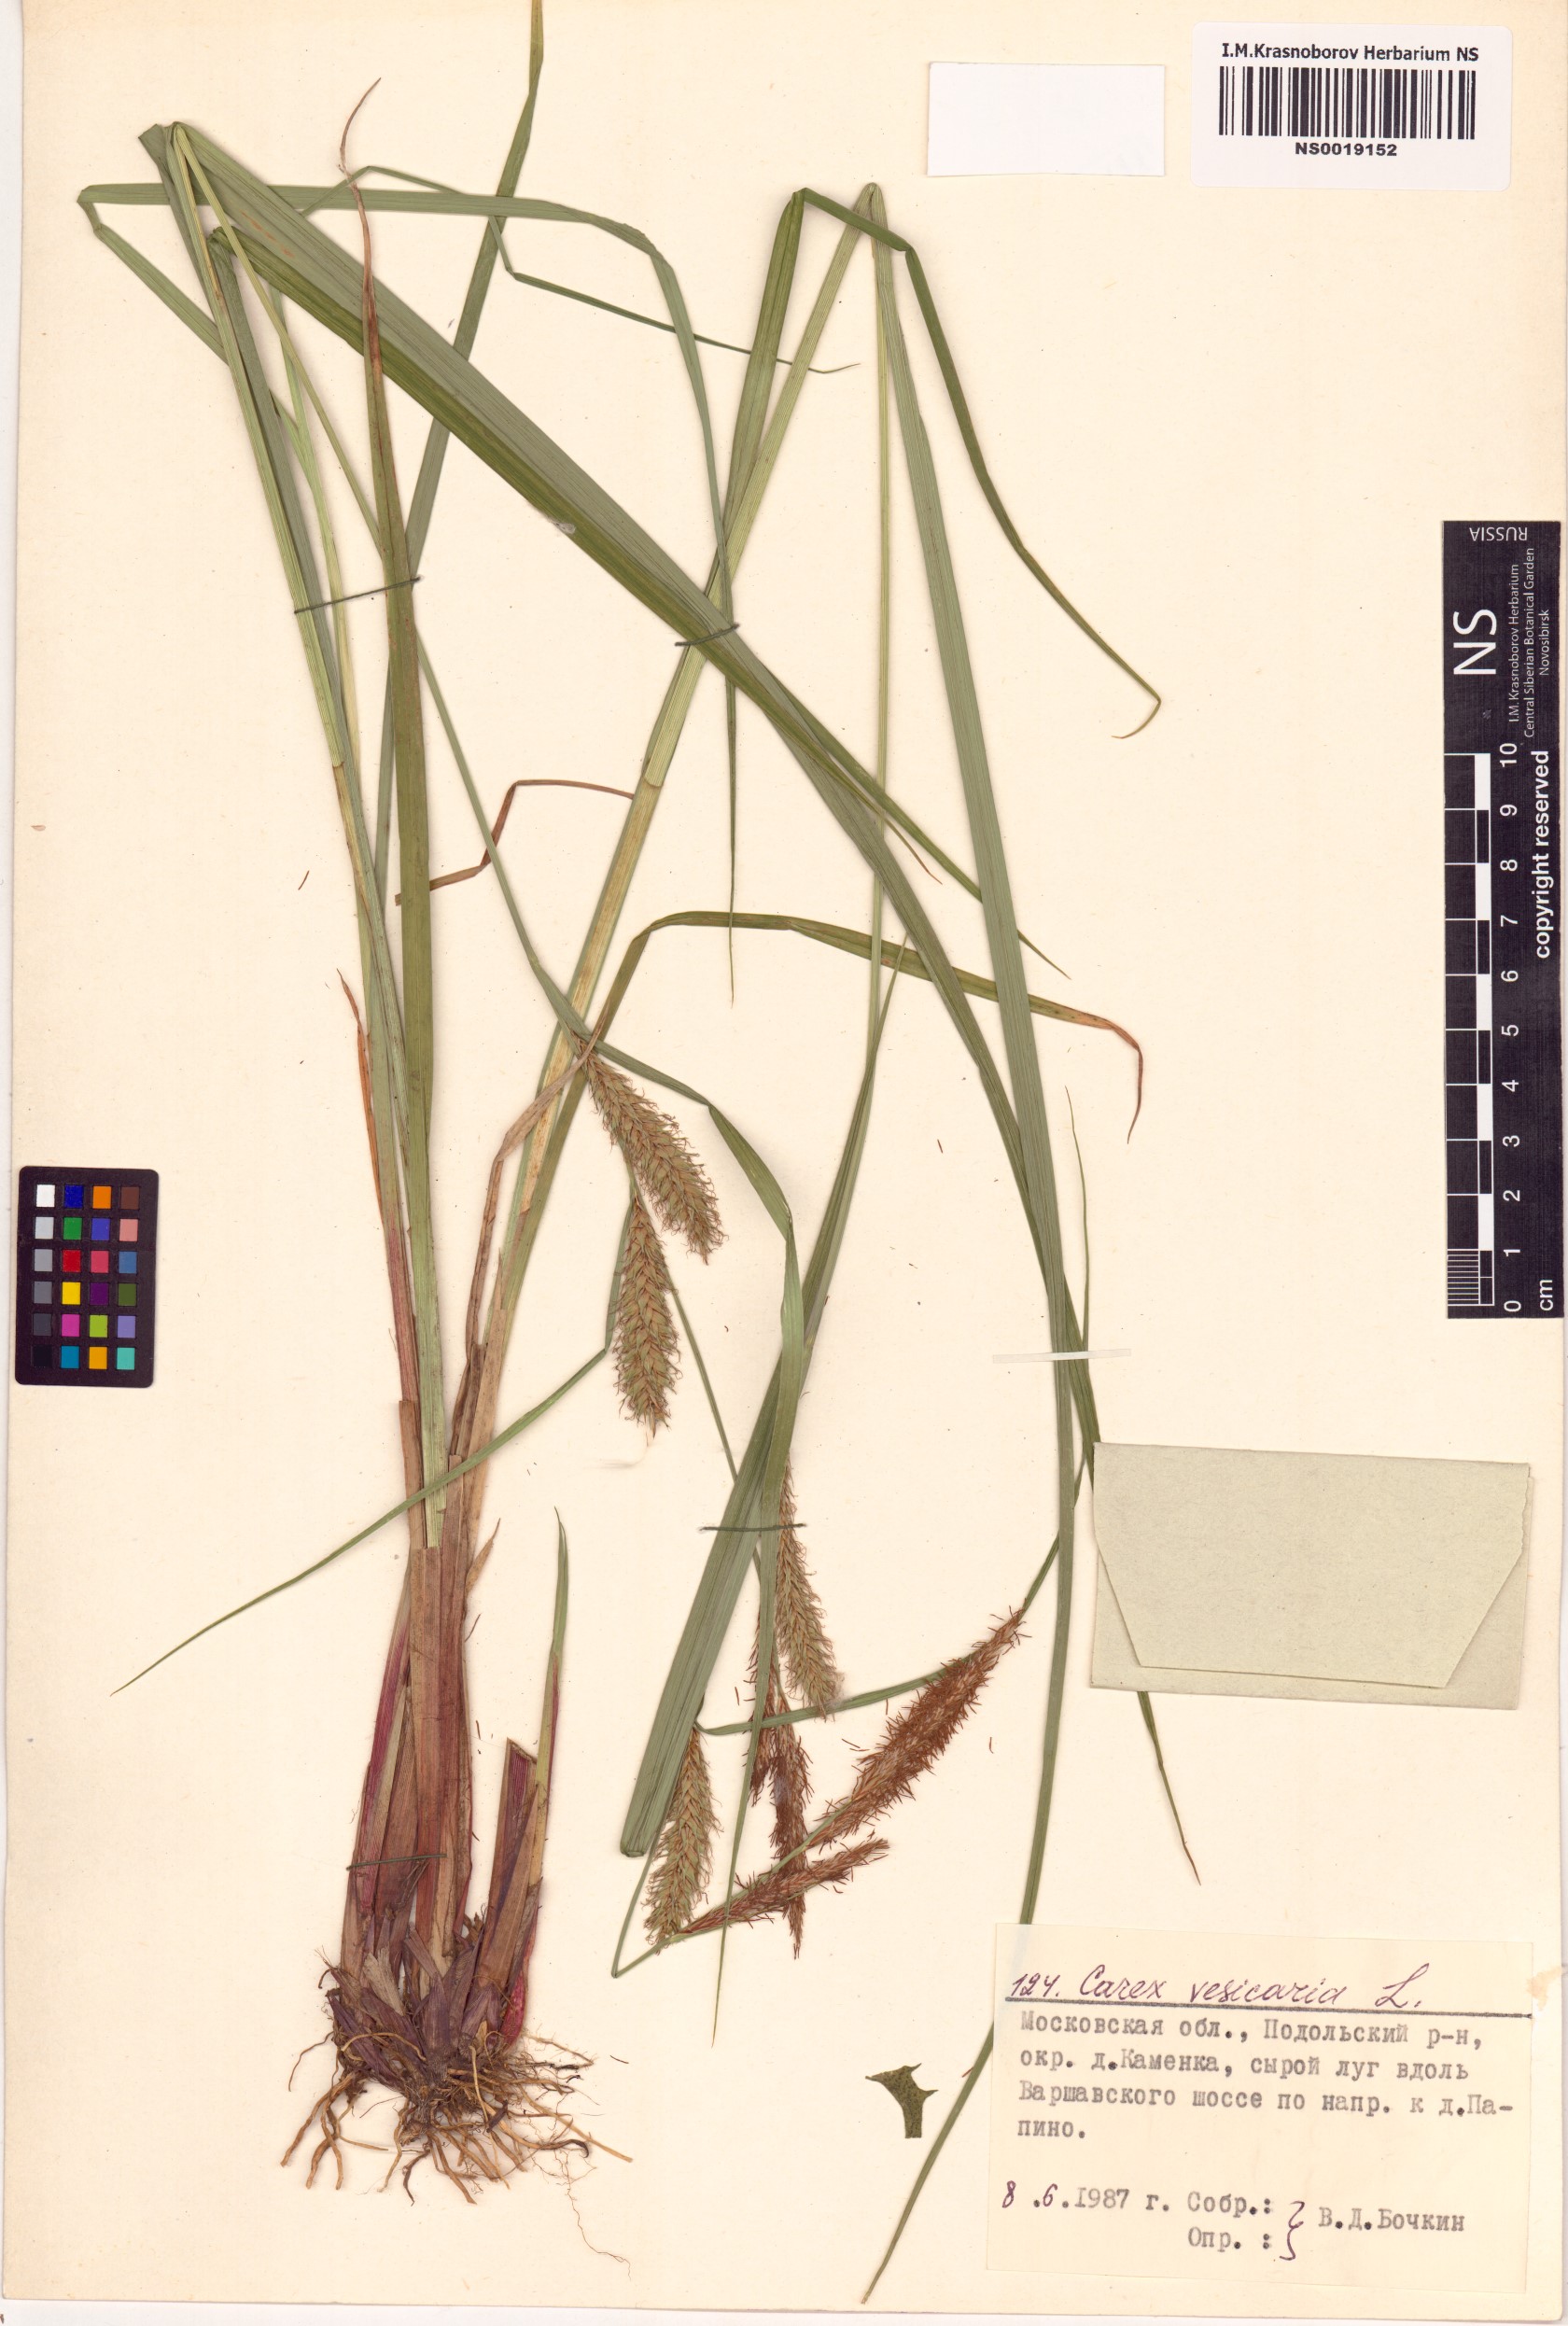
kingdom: Plantae
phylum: Tracheophyta
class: Liliopsida
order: Poales
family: Cyperaceae
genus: Carex
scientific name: Carex vesicaria
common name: Bladder-sedge
